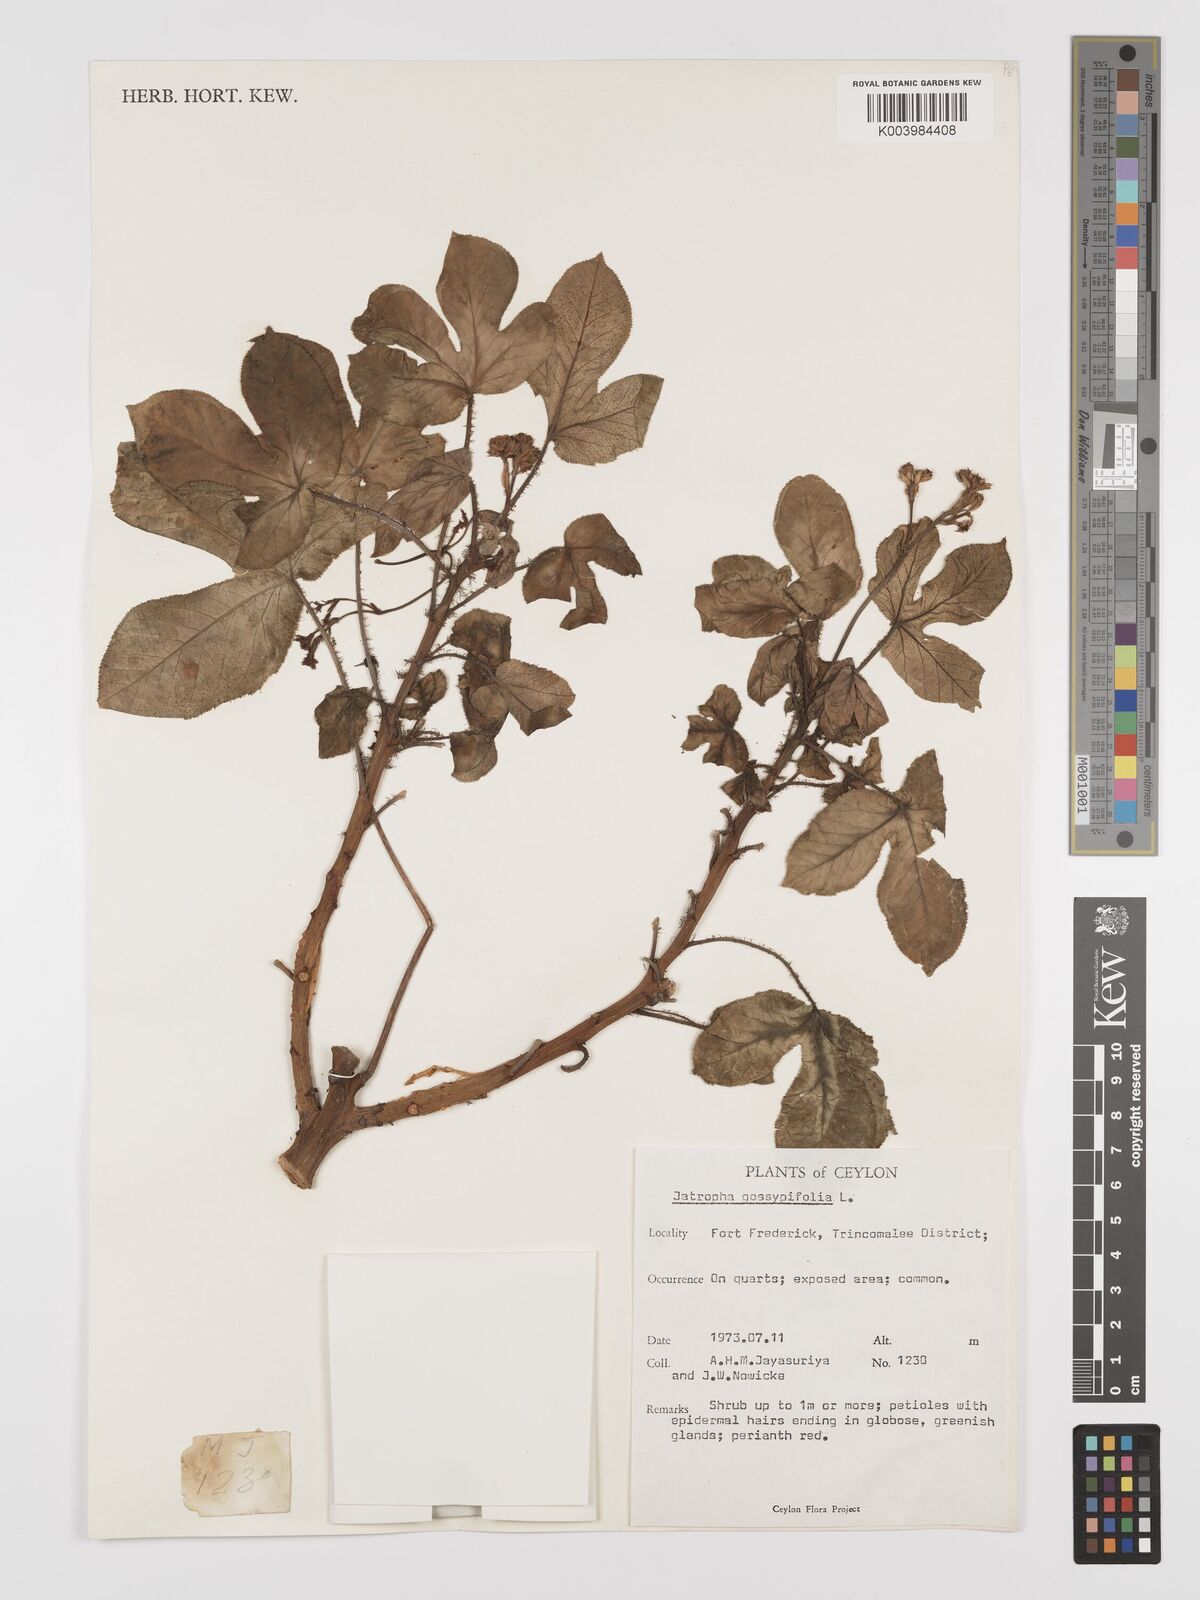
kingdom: Plantae
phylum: Tracheophyta
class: Magnoliopsida
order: Malpighiales
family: Euphorbiaceae
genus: Jatropha
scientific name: Jatropha gossypiifolia
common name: Bellyache bush
